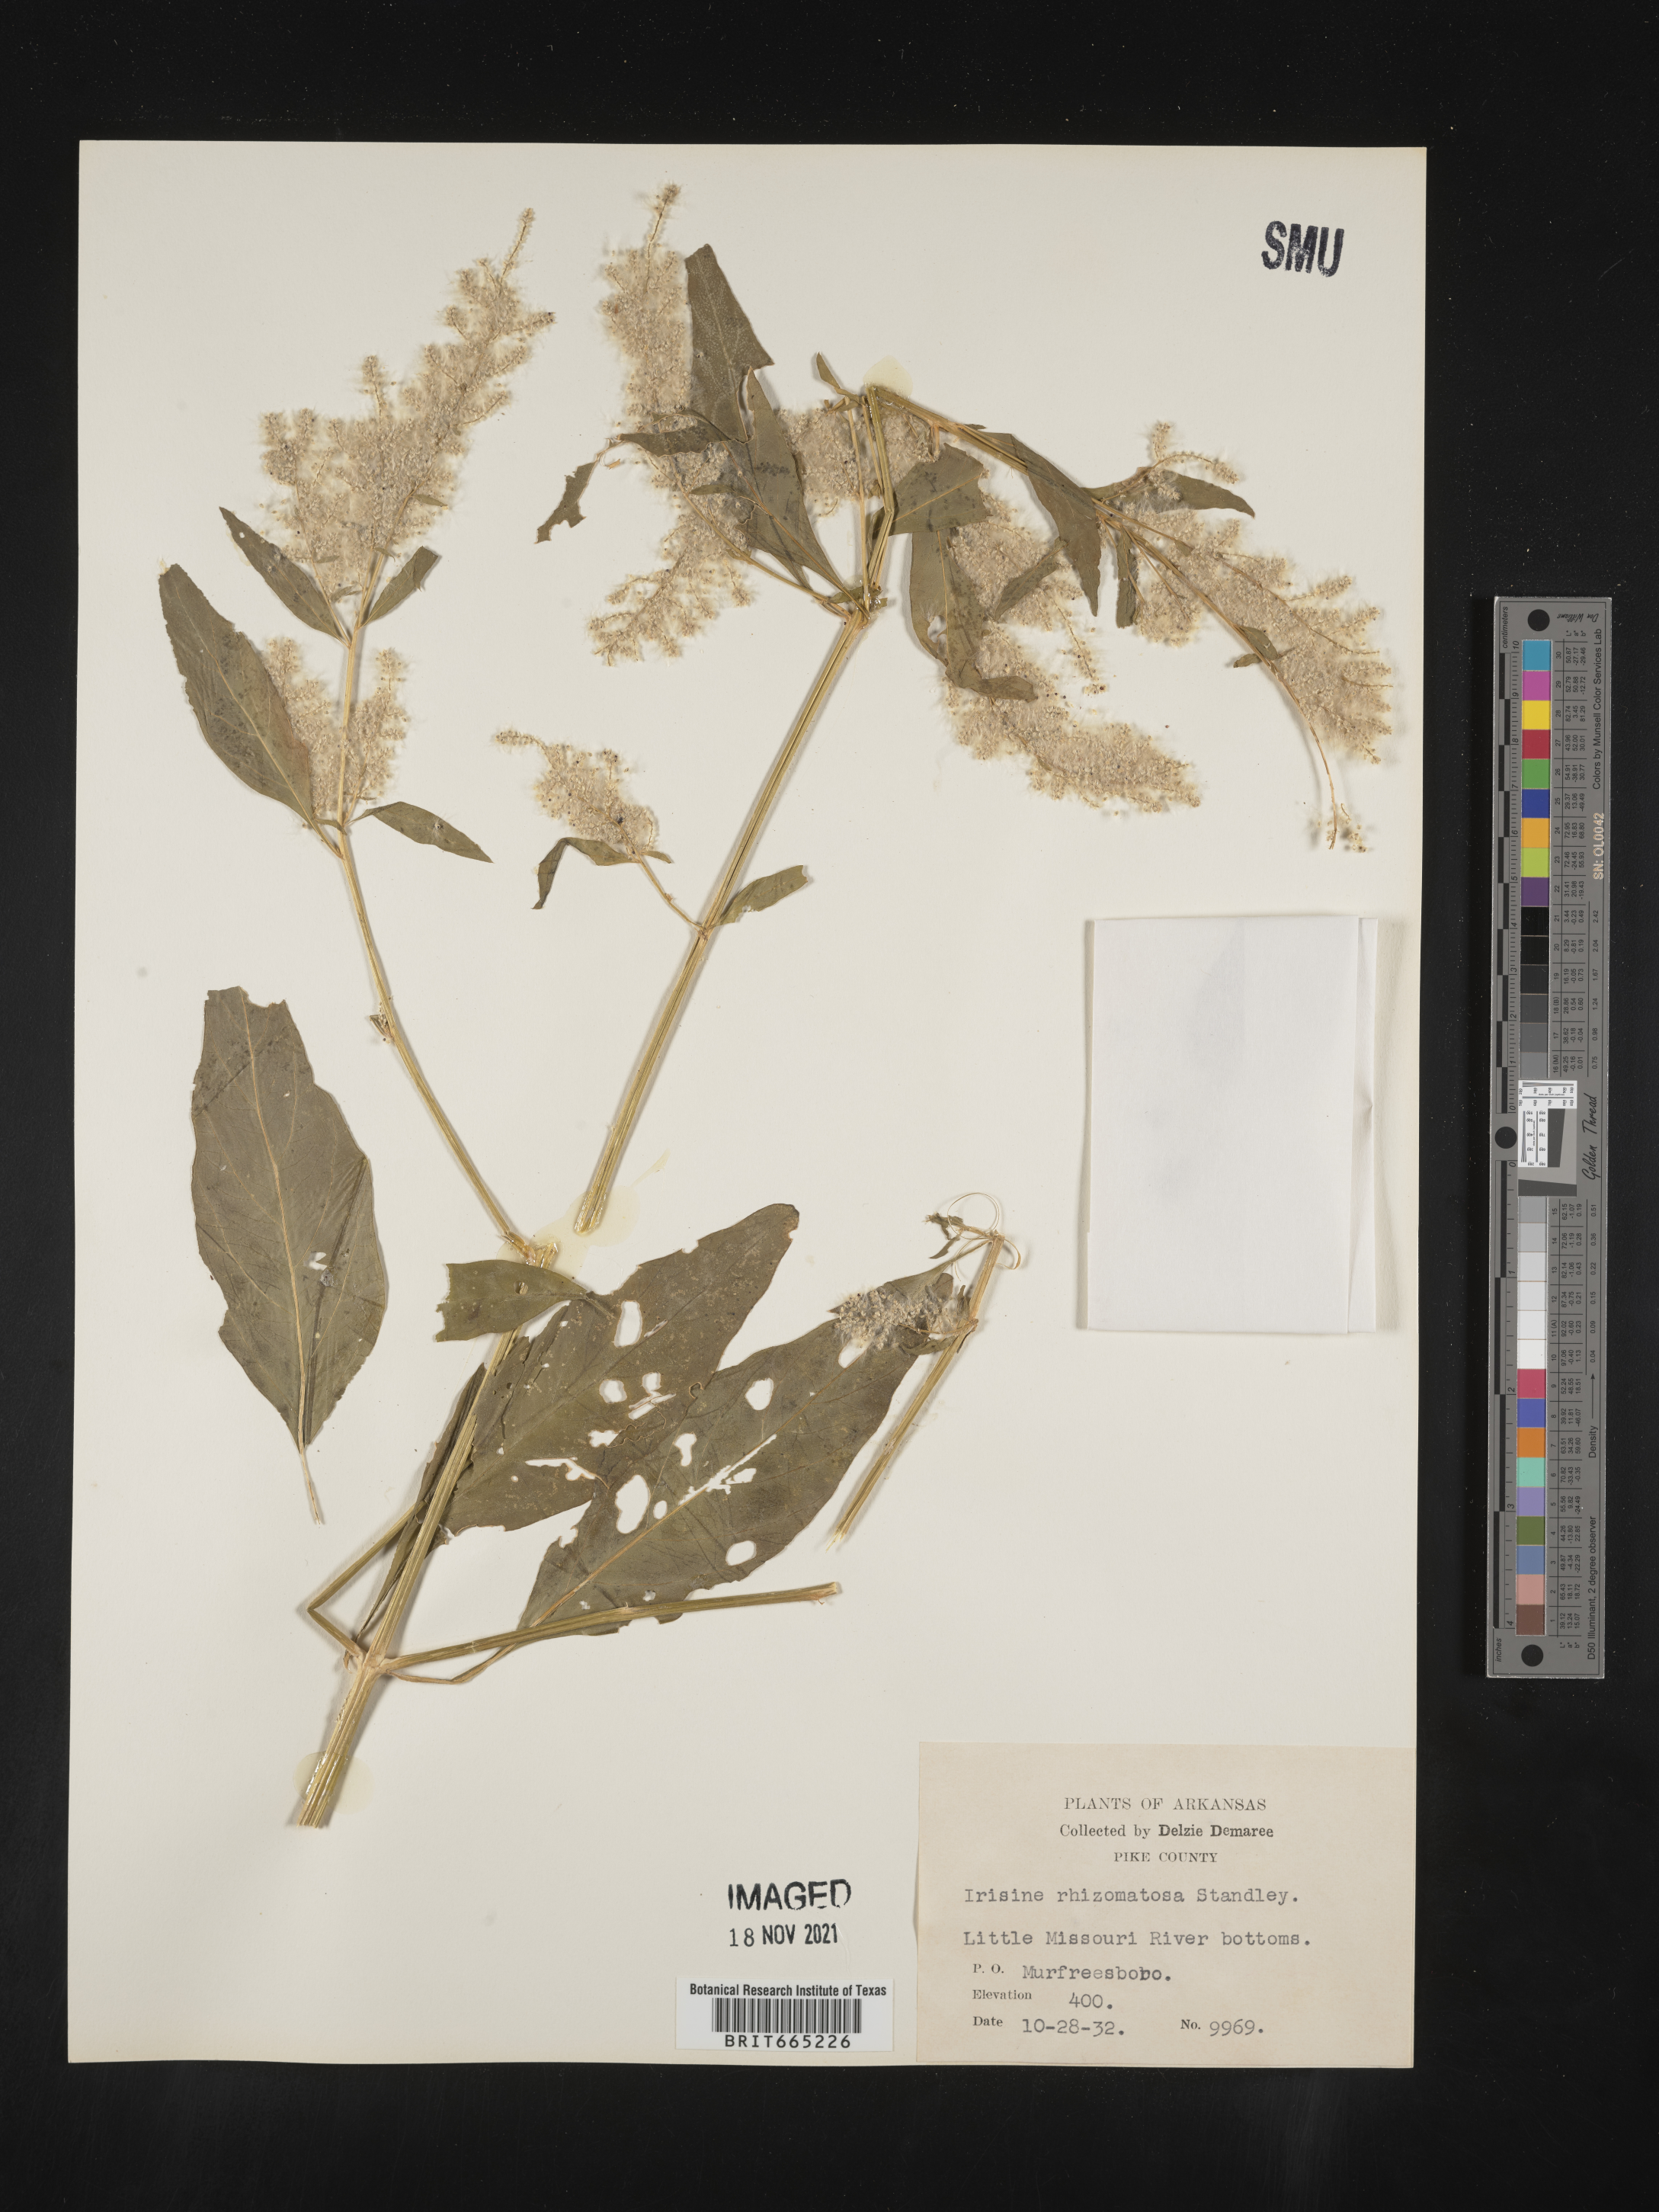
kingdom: Plantae
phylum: Tracheophyta
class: Magnoliopsida
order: Caryophyllales
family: Amaranthaceae
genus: Iresine
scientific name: Iresine rhizomatosa
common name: Juda's-bush
